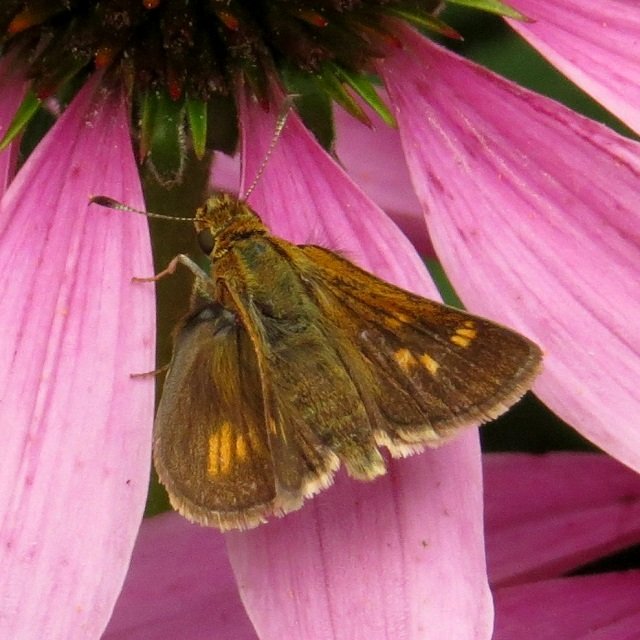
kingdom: Animalia
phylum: Arthropoda
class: Insecta
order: Lepidoptera
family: Hesperiidae
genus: Polites
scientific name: Polites coras
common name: Peck's Skipper
